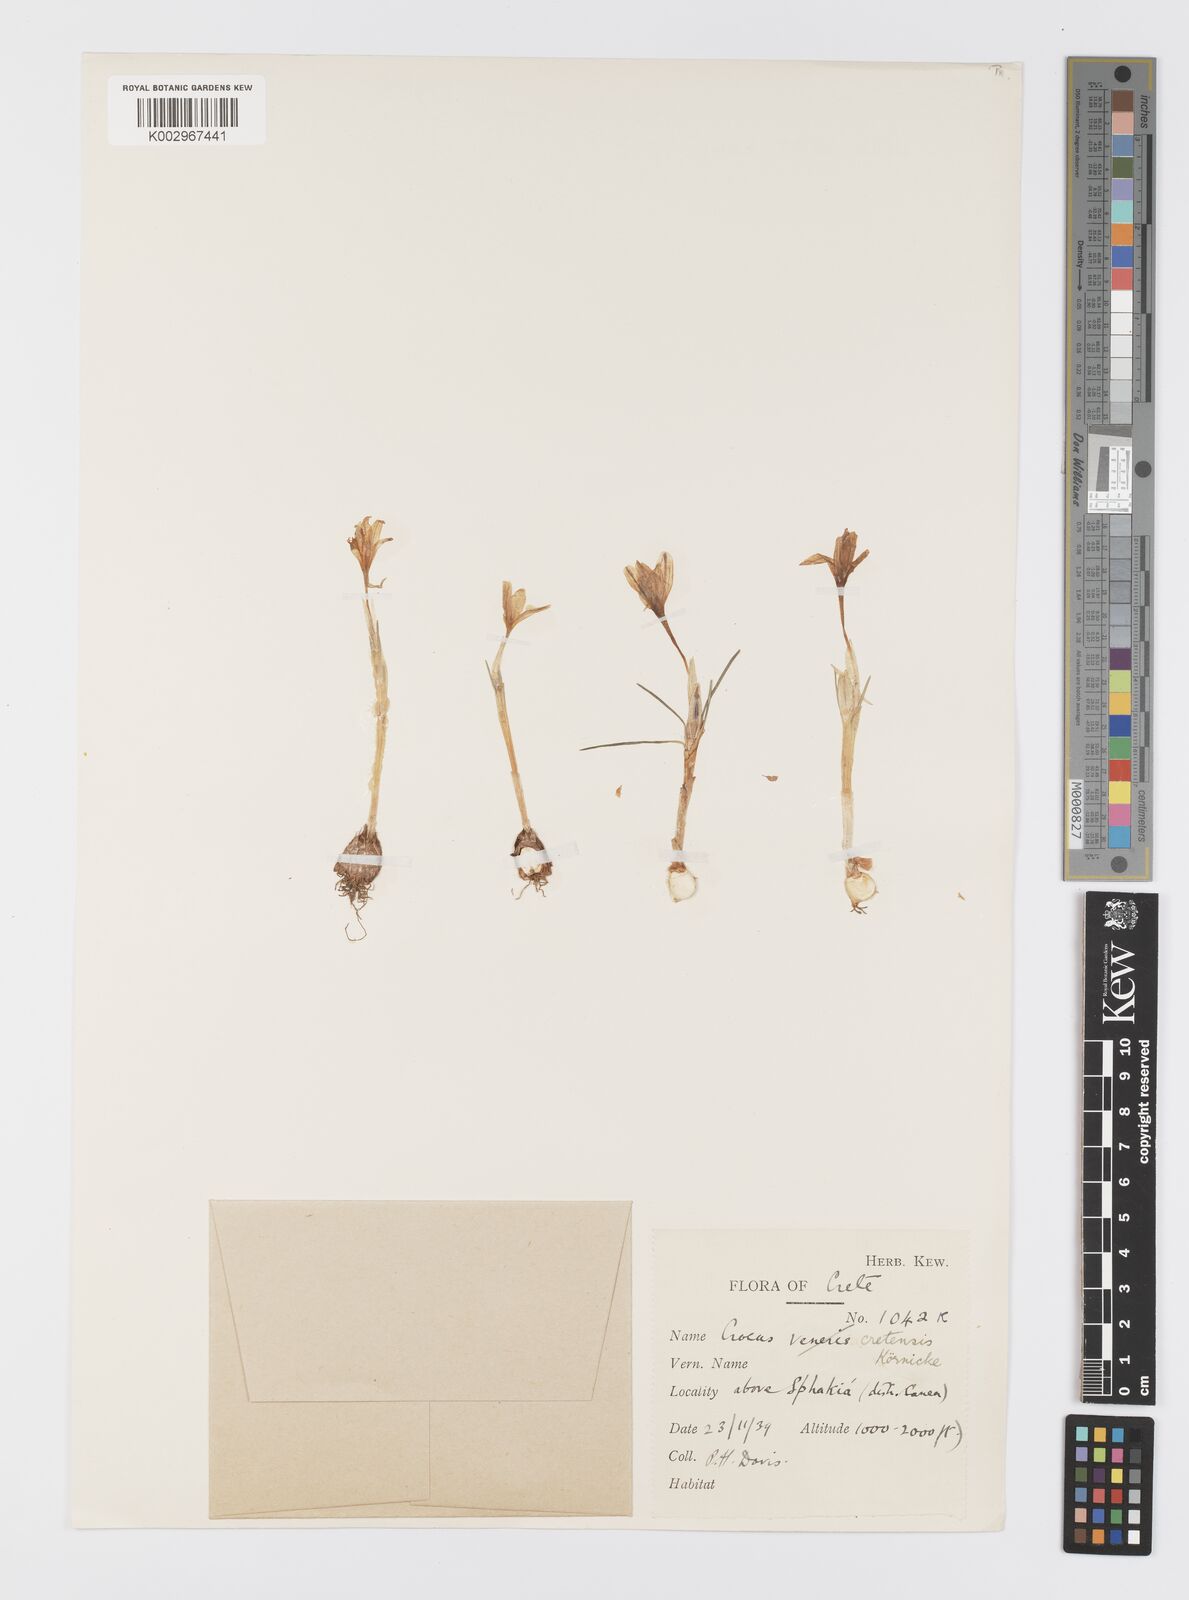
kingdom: Plantae
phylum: Tracheophyta
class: Liliopsida
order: Asparagales
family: Iridaceae
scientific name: Iridaceae
